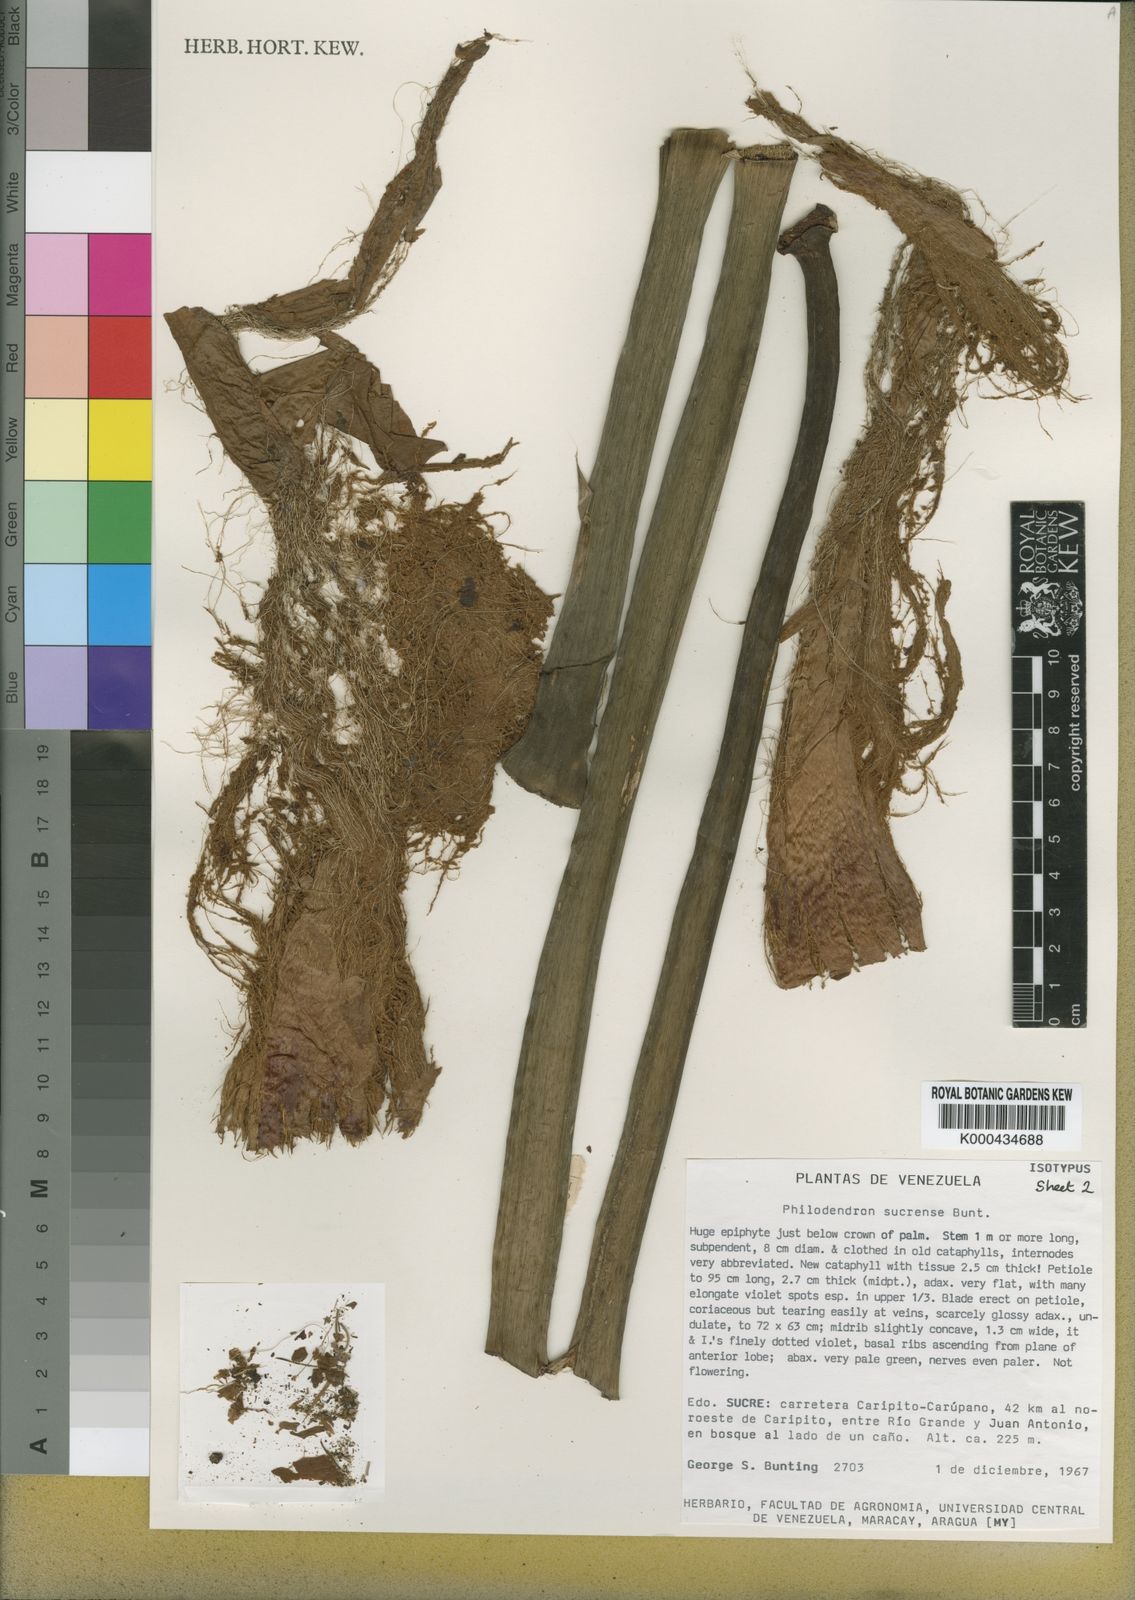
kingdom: Plantae
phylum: Tracheophyta
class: Liliopsida
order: Alismatales
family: Araceae
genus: Philodendron
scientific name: Philodendron sucrense
